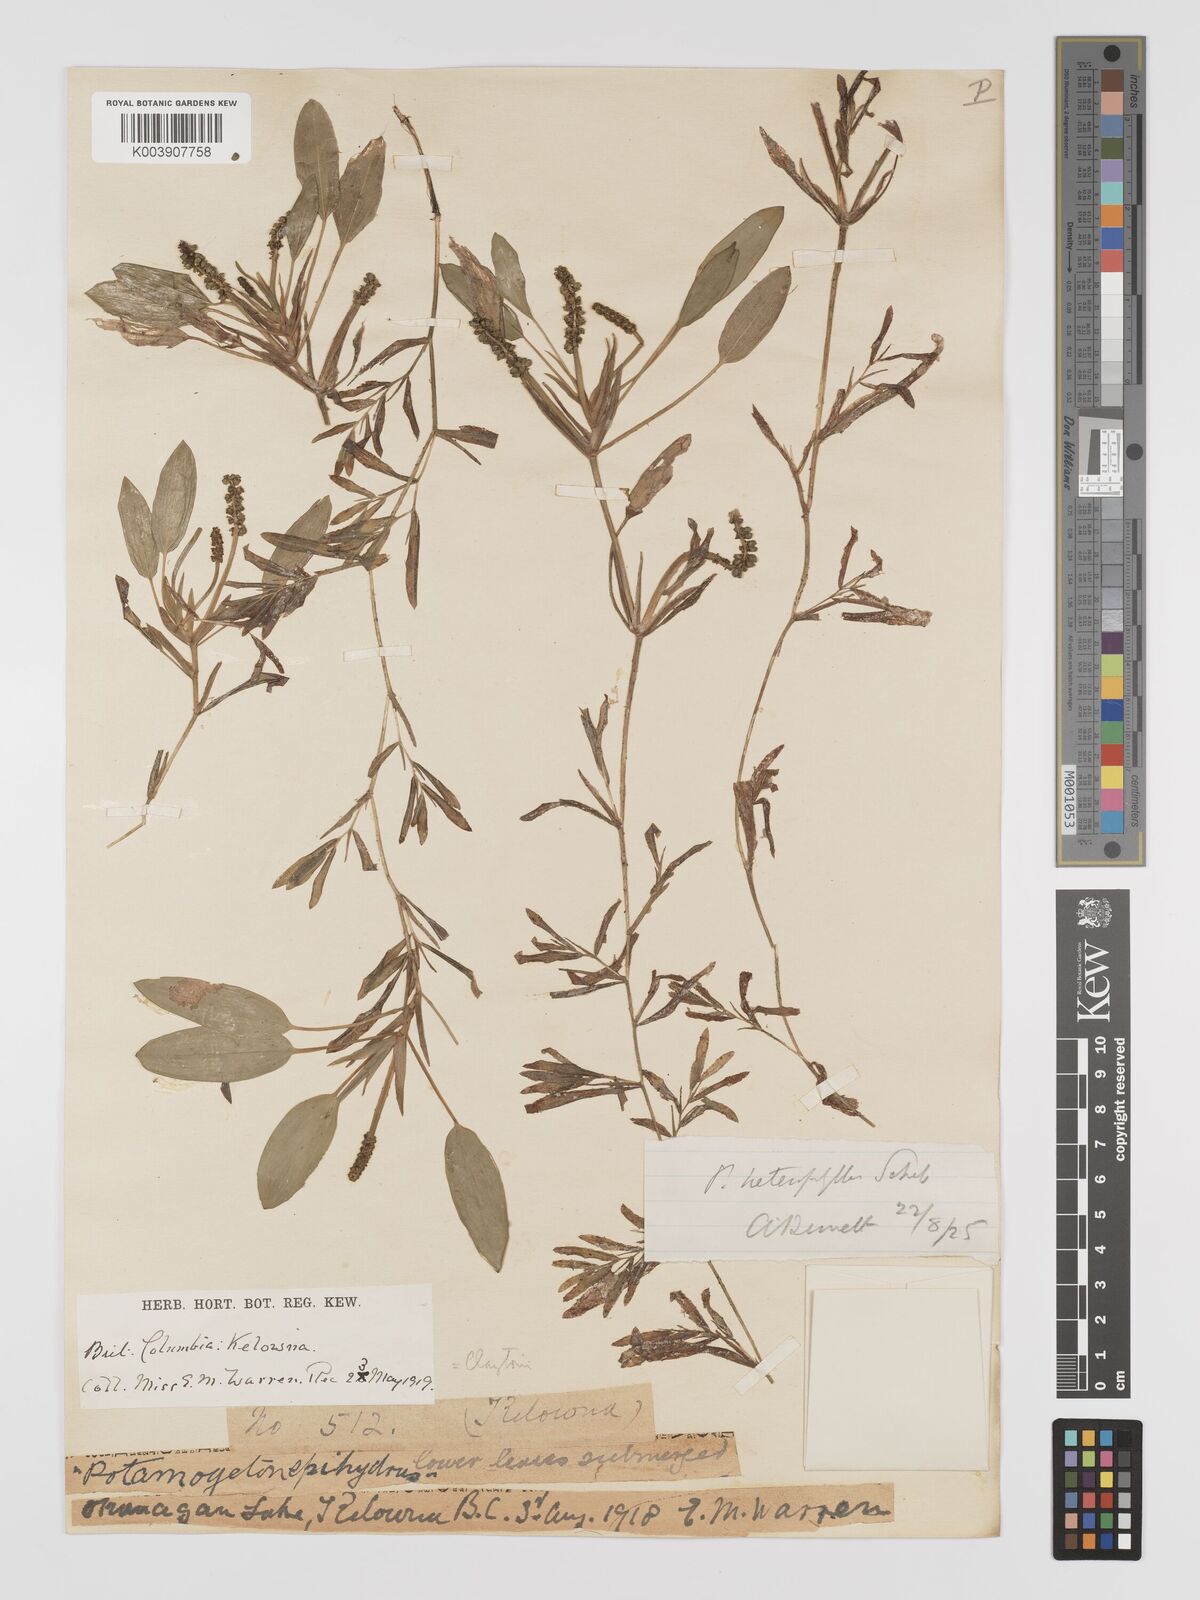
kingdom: Plantae
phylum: Tracheophyta
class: Liliopsida
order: Alismatales
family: Potamogetonaceae
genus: Potamogeton
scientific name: Potamogeton gramineus
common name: Various-leaved pondweed
